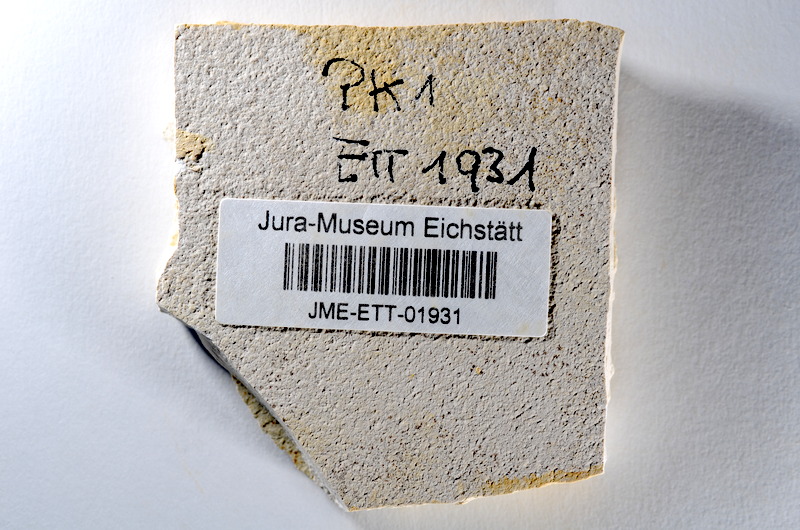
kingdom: Animalia
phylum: Chordata
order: Salmoniformes
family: Orthogonikleithridae
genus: Orthogonikleithrus
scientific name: Orthogonikleithrus hoelli
